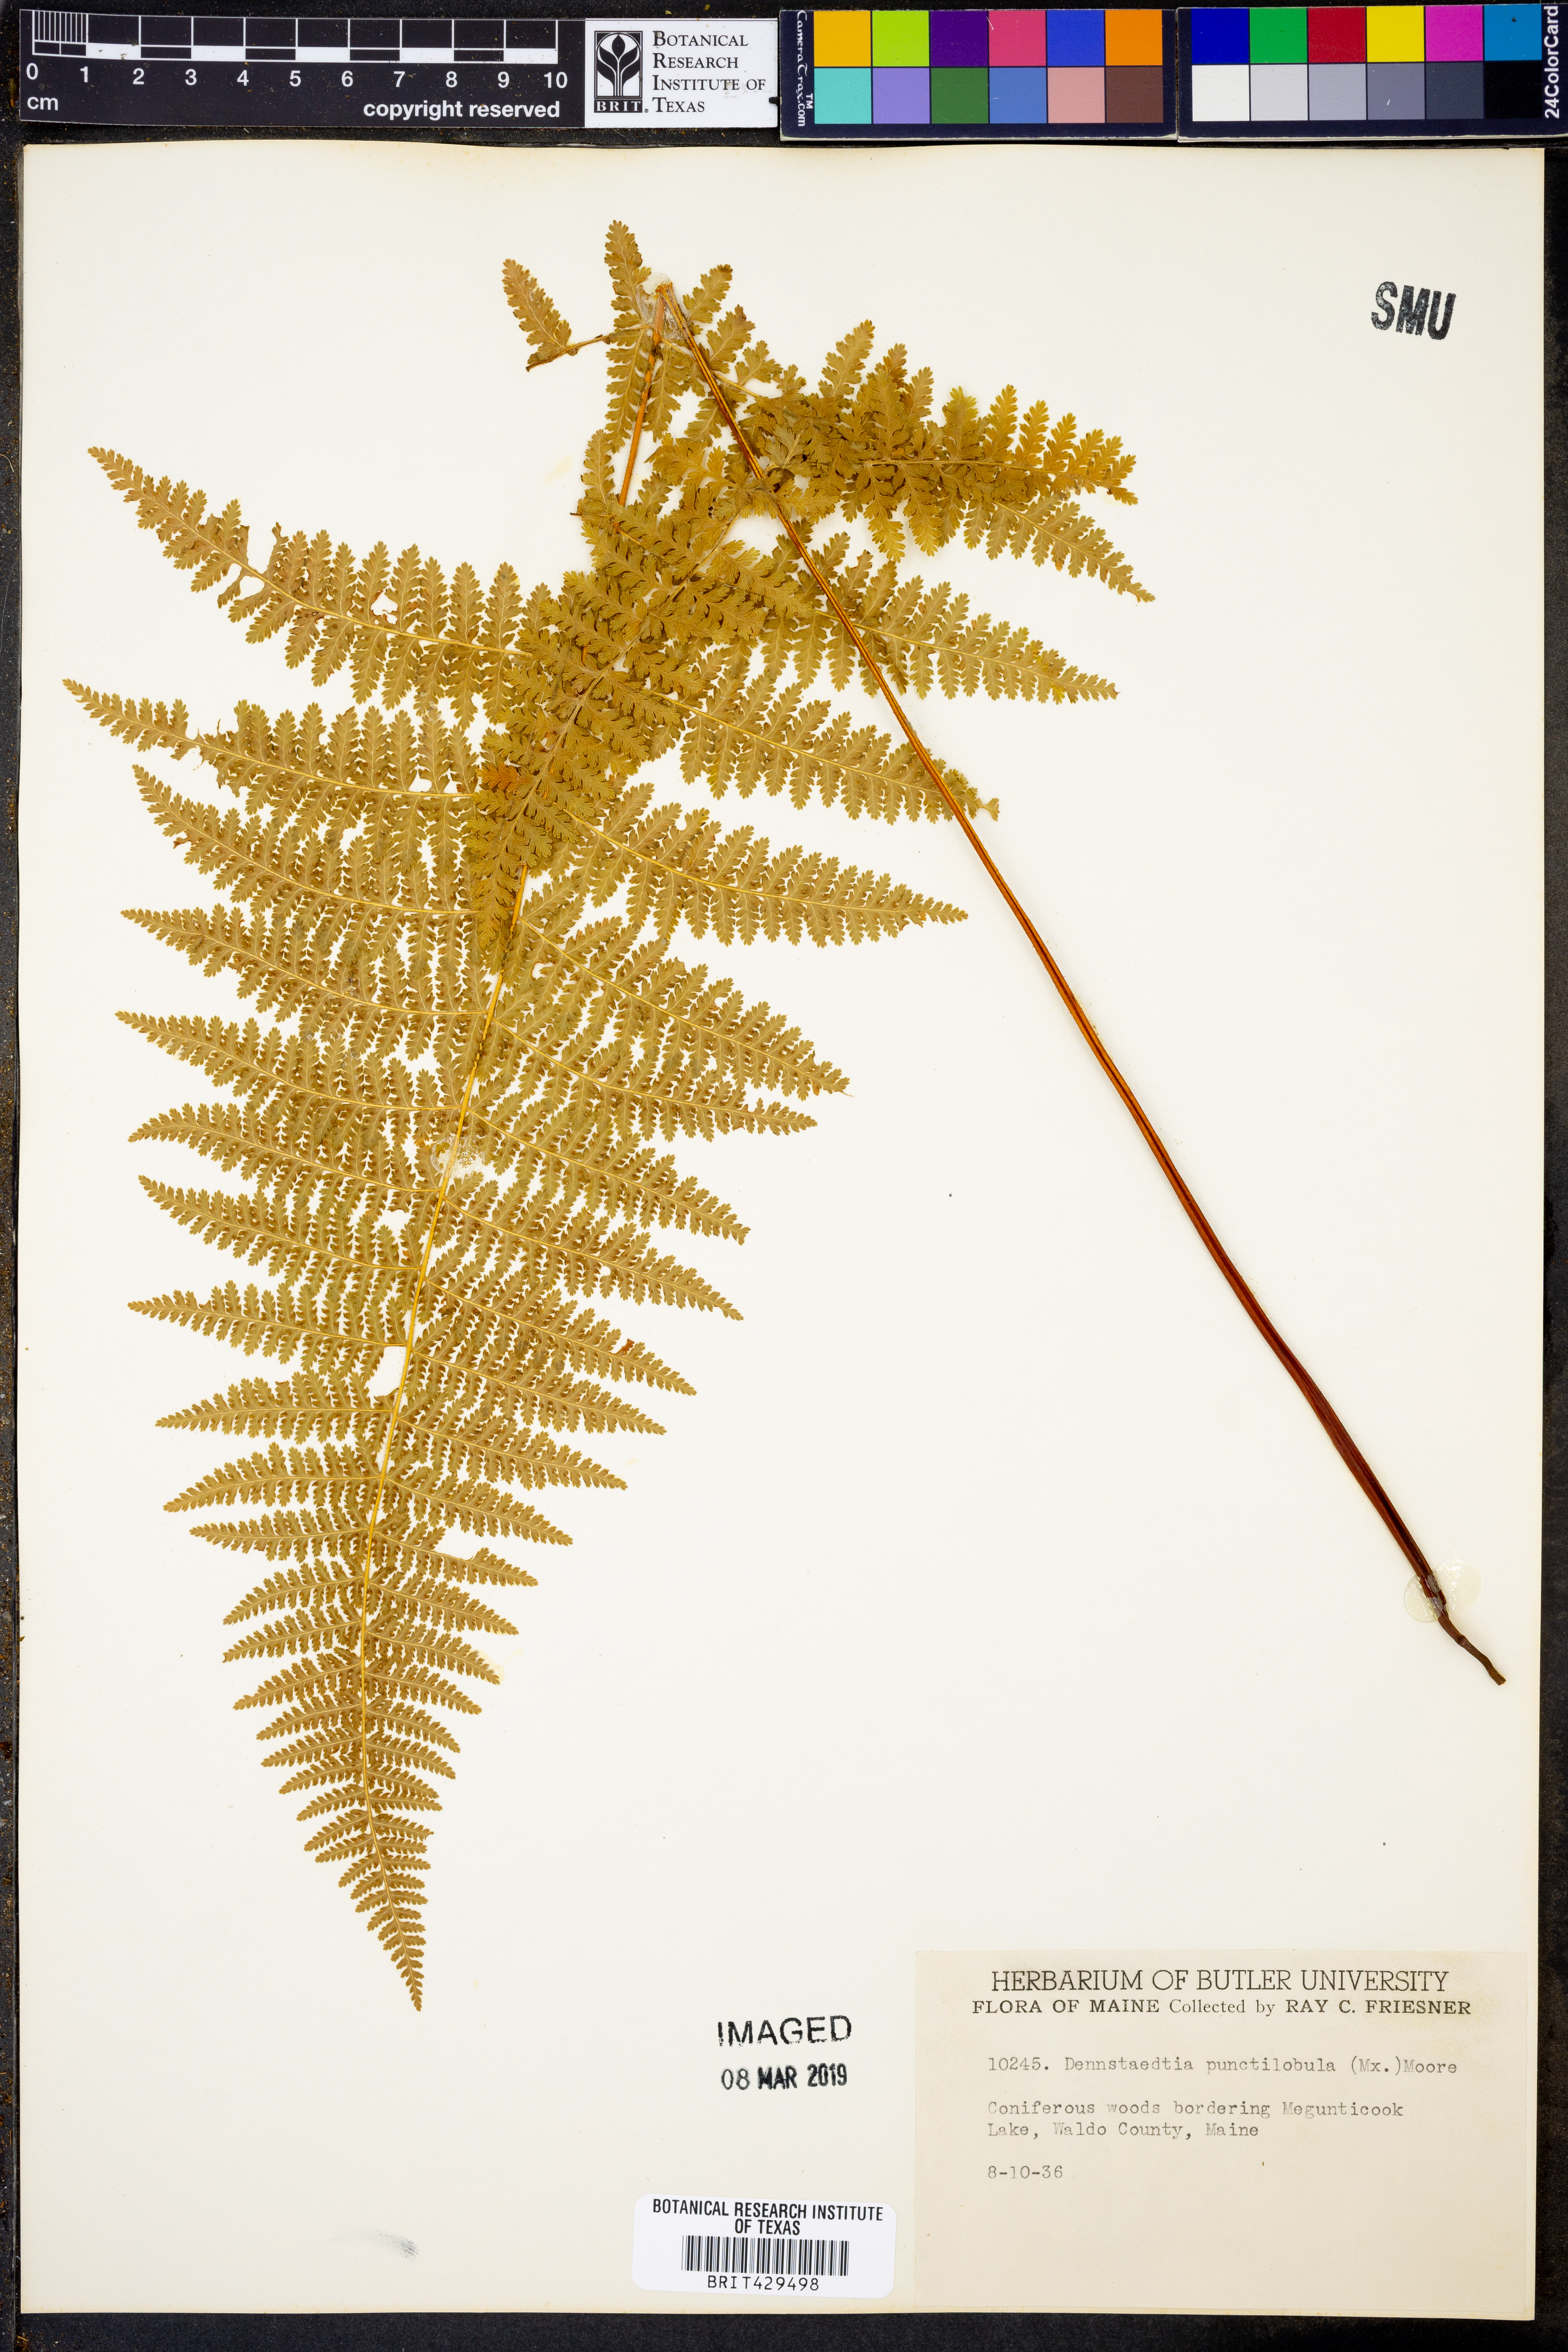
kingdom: Plantae
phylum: Tracheophyta
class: Polypodiopsida
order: Polypodiales
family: Dennstaedtiaceae
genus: Sitobolium
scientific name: Sitobolium punctilobum
